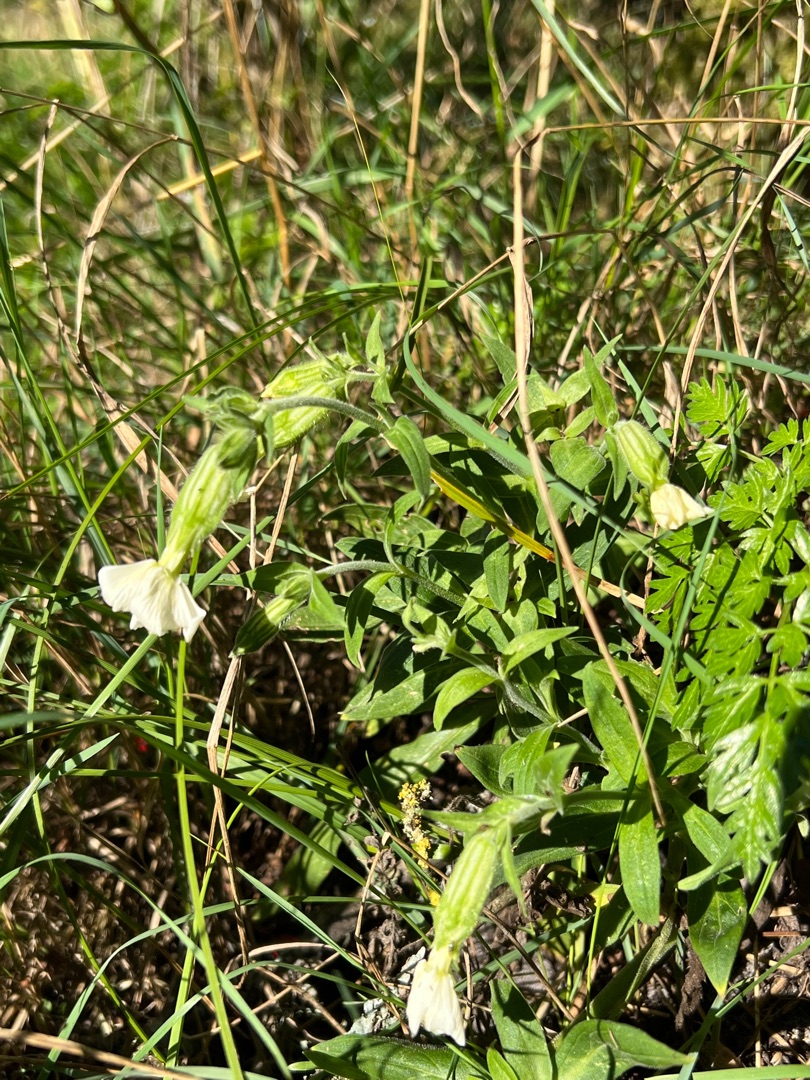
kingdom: Plantae
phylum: Tracheophyta
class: Magnoliopsida
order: Caryophyllales
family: Caryophyllaceae
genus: Silene
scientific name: Silene latifolia
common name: Aftenpragtstjerne
